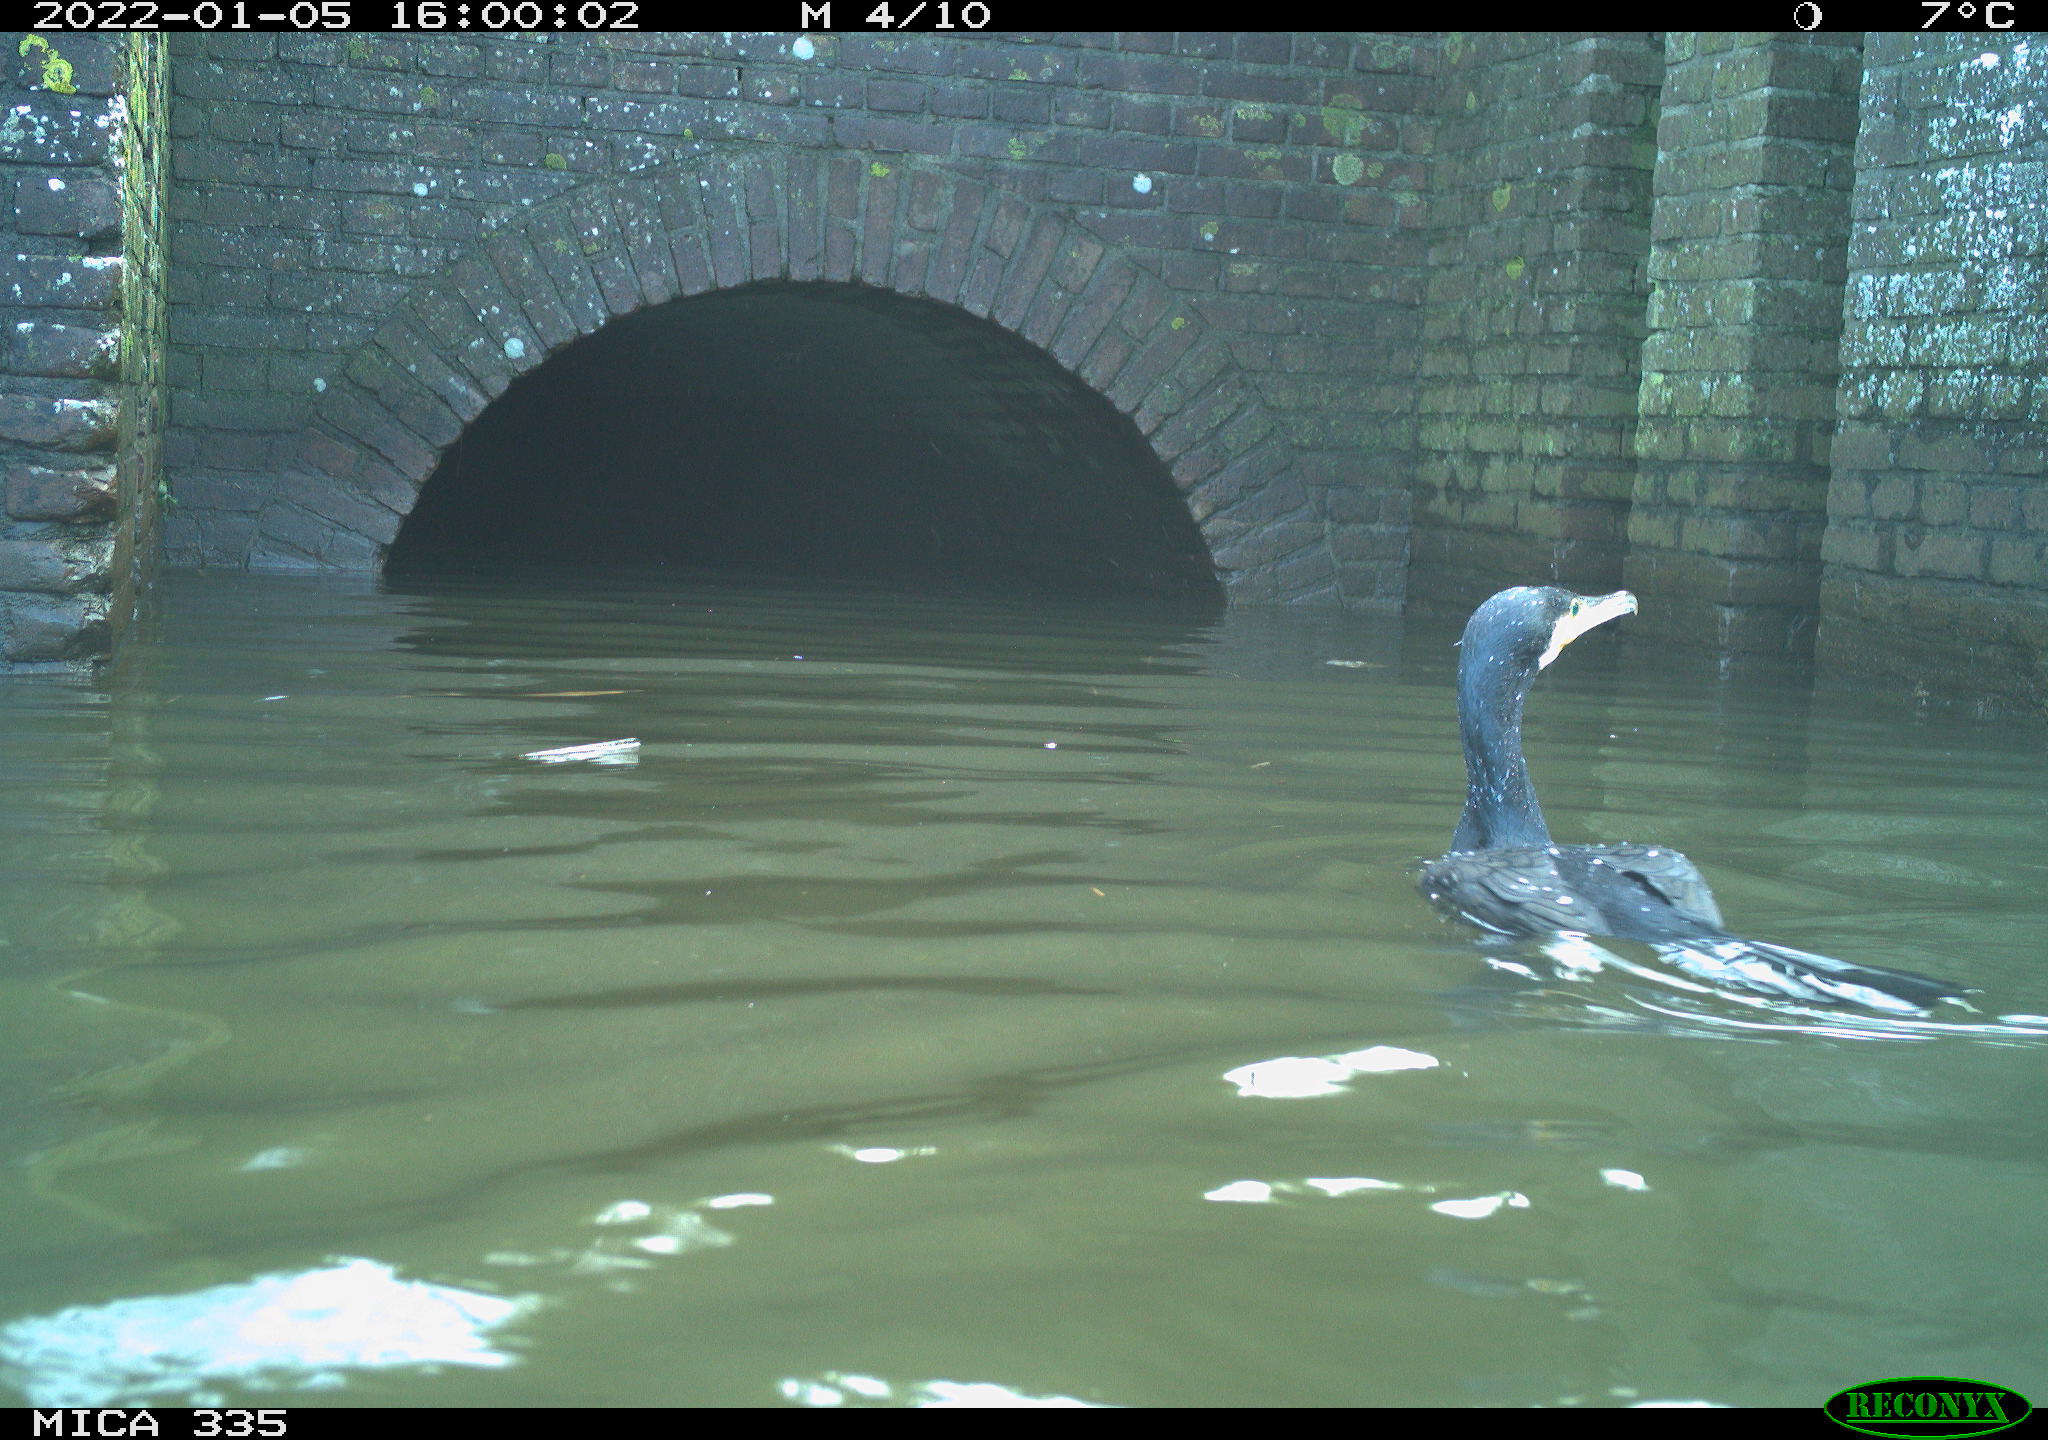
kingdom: Animalia
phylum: Chordata
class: Aves
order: Suliformes
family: Phalacrocoracidae
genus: Phalacrocorax
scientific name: Phalacrocorax carbo
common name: Great cormorant
